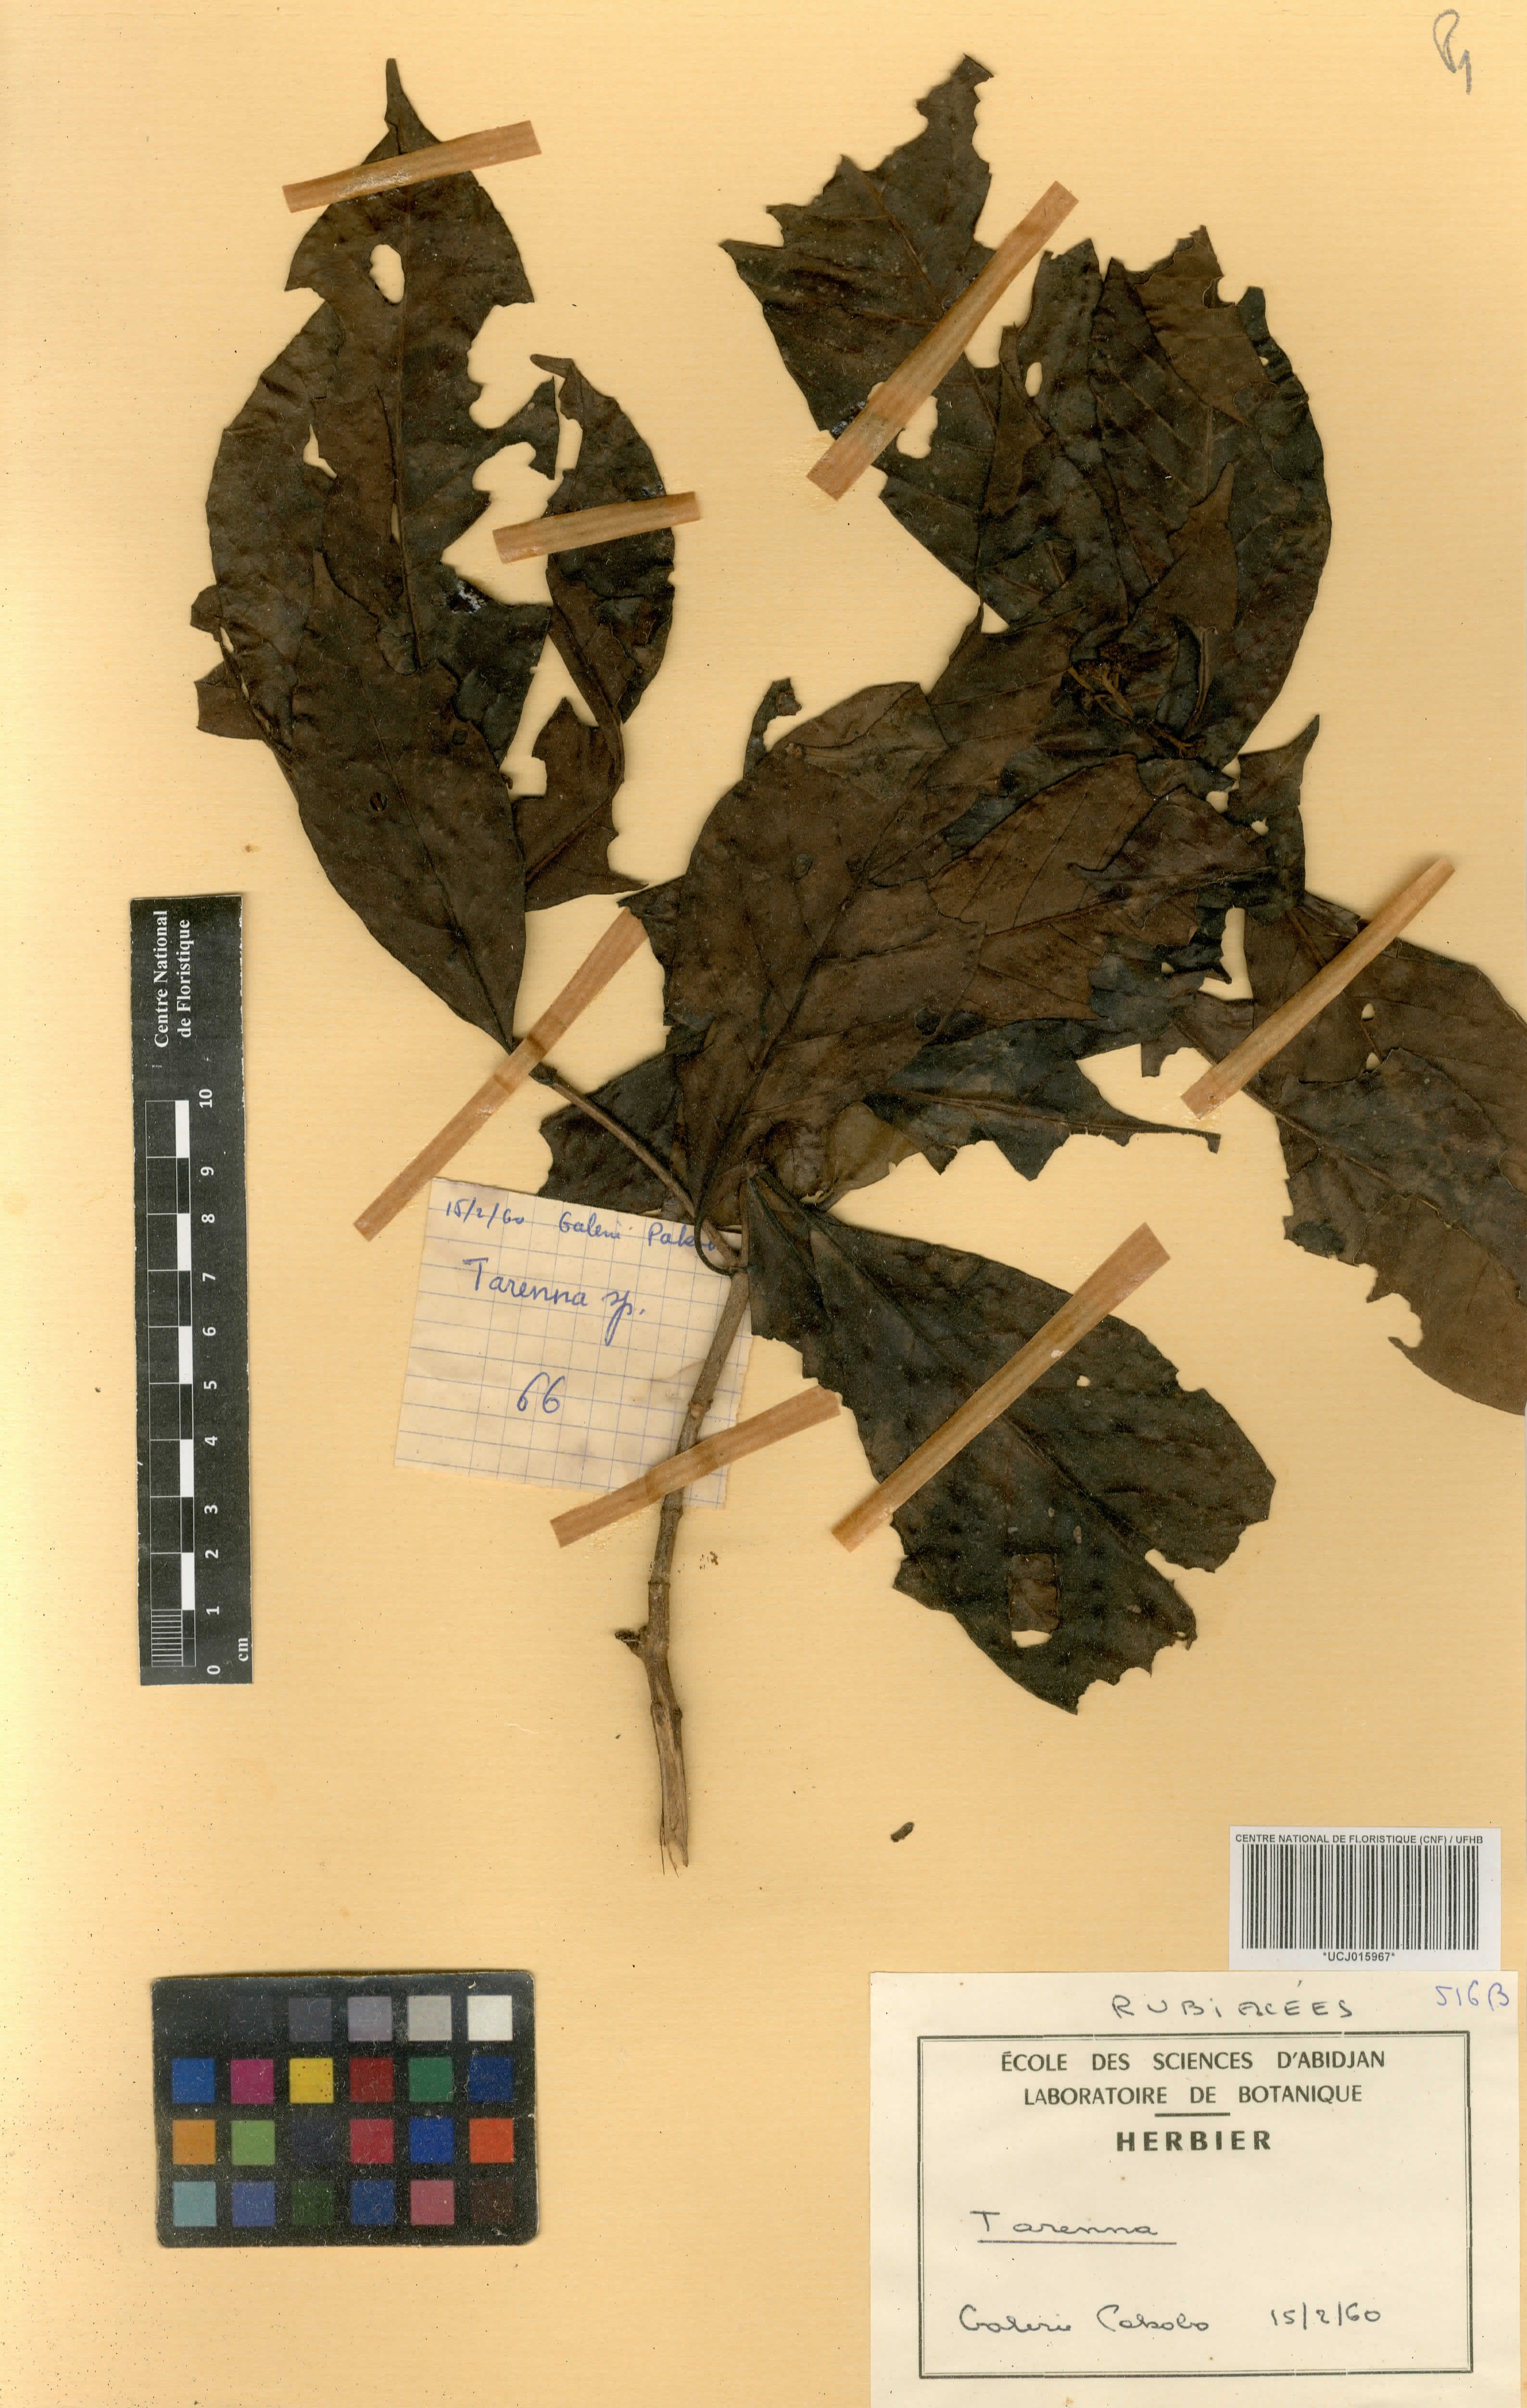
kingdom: Plantae
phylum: Tracheophyta
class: Magnoliopsida
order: Gentianales
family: Rubiaceae
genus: Tarenna
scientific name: Tarenna
